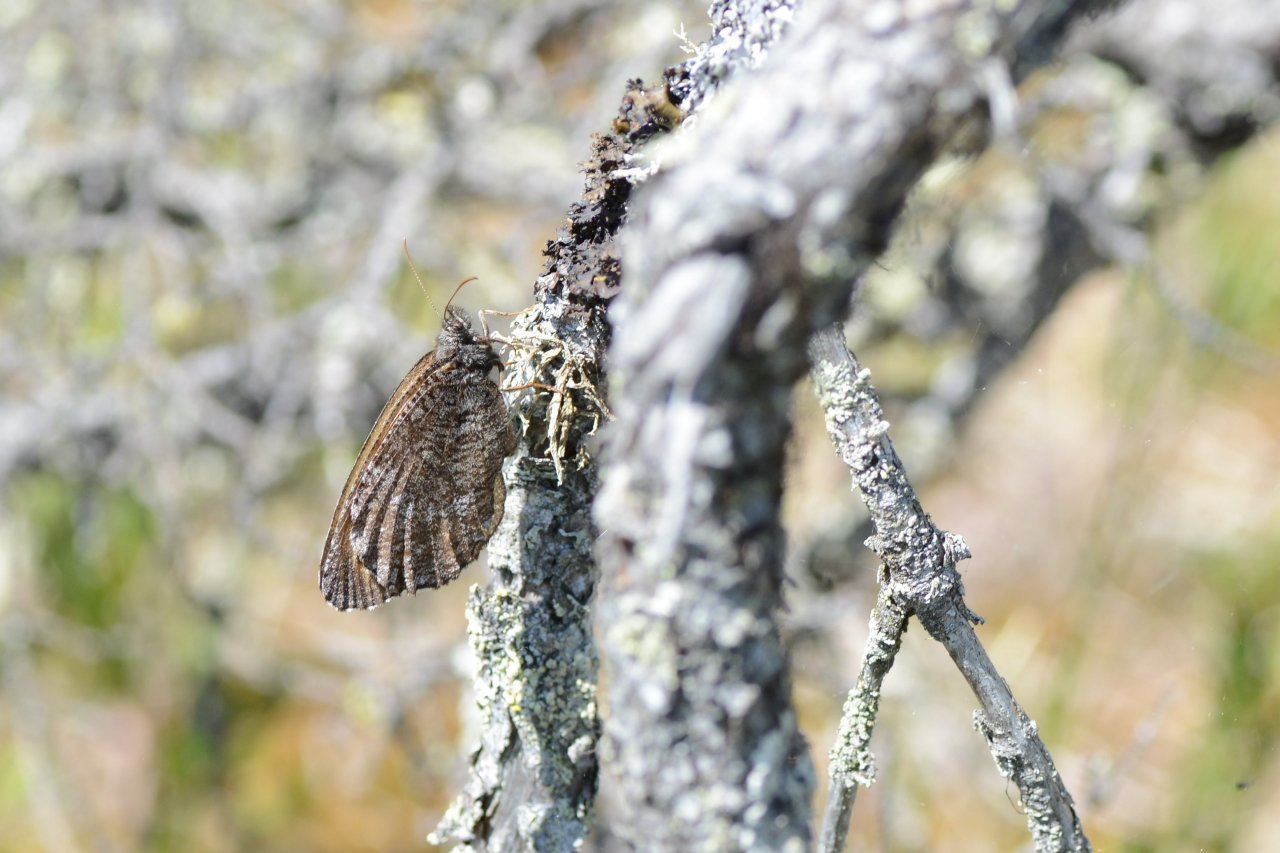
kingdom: Animalia
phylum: Arthropoda
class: Insecta
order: Lepidoptera
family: Nymphalidae
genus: Oeneis
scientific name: Oeneis jutta
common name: Jutta Arctic
